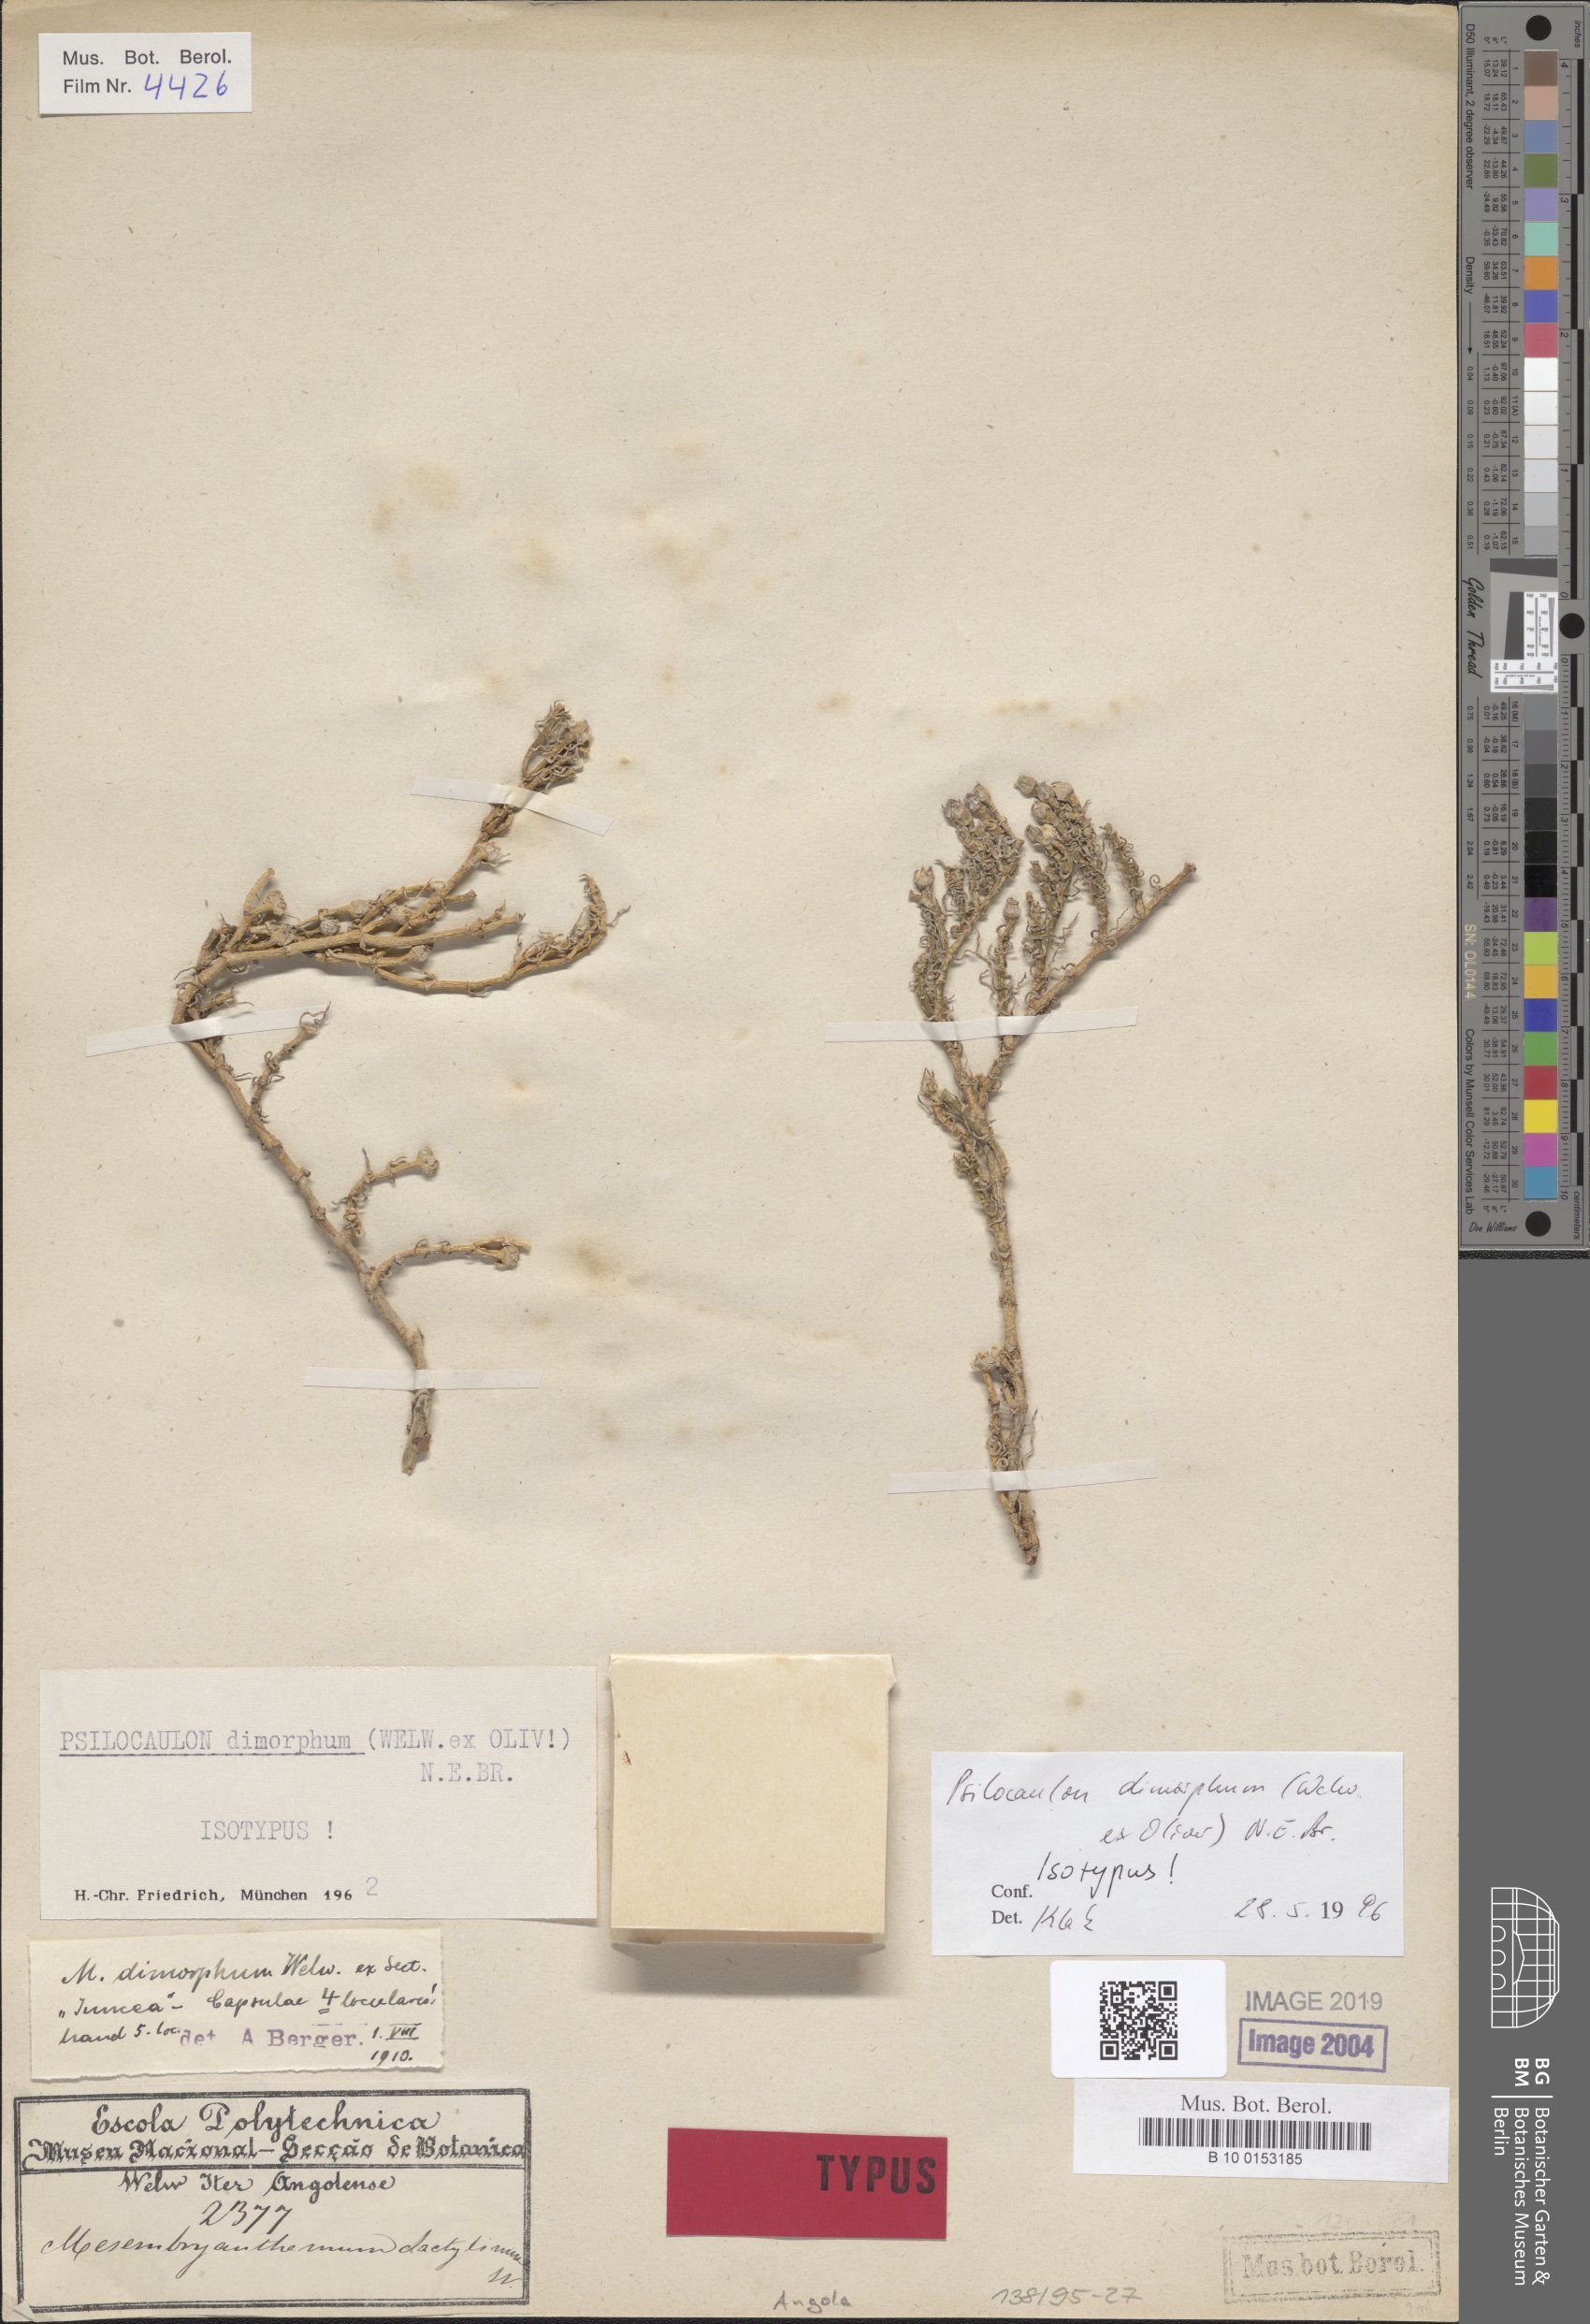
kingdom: Plantae
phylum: Tracheophyta
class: Magnoliopsida
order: Caryophyllales
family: Aizoaceae
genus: Mesembryanthemum
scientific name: Mesembryanthemum dimorphum
